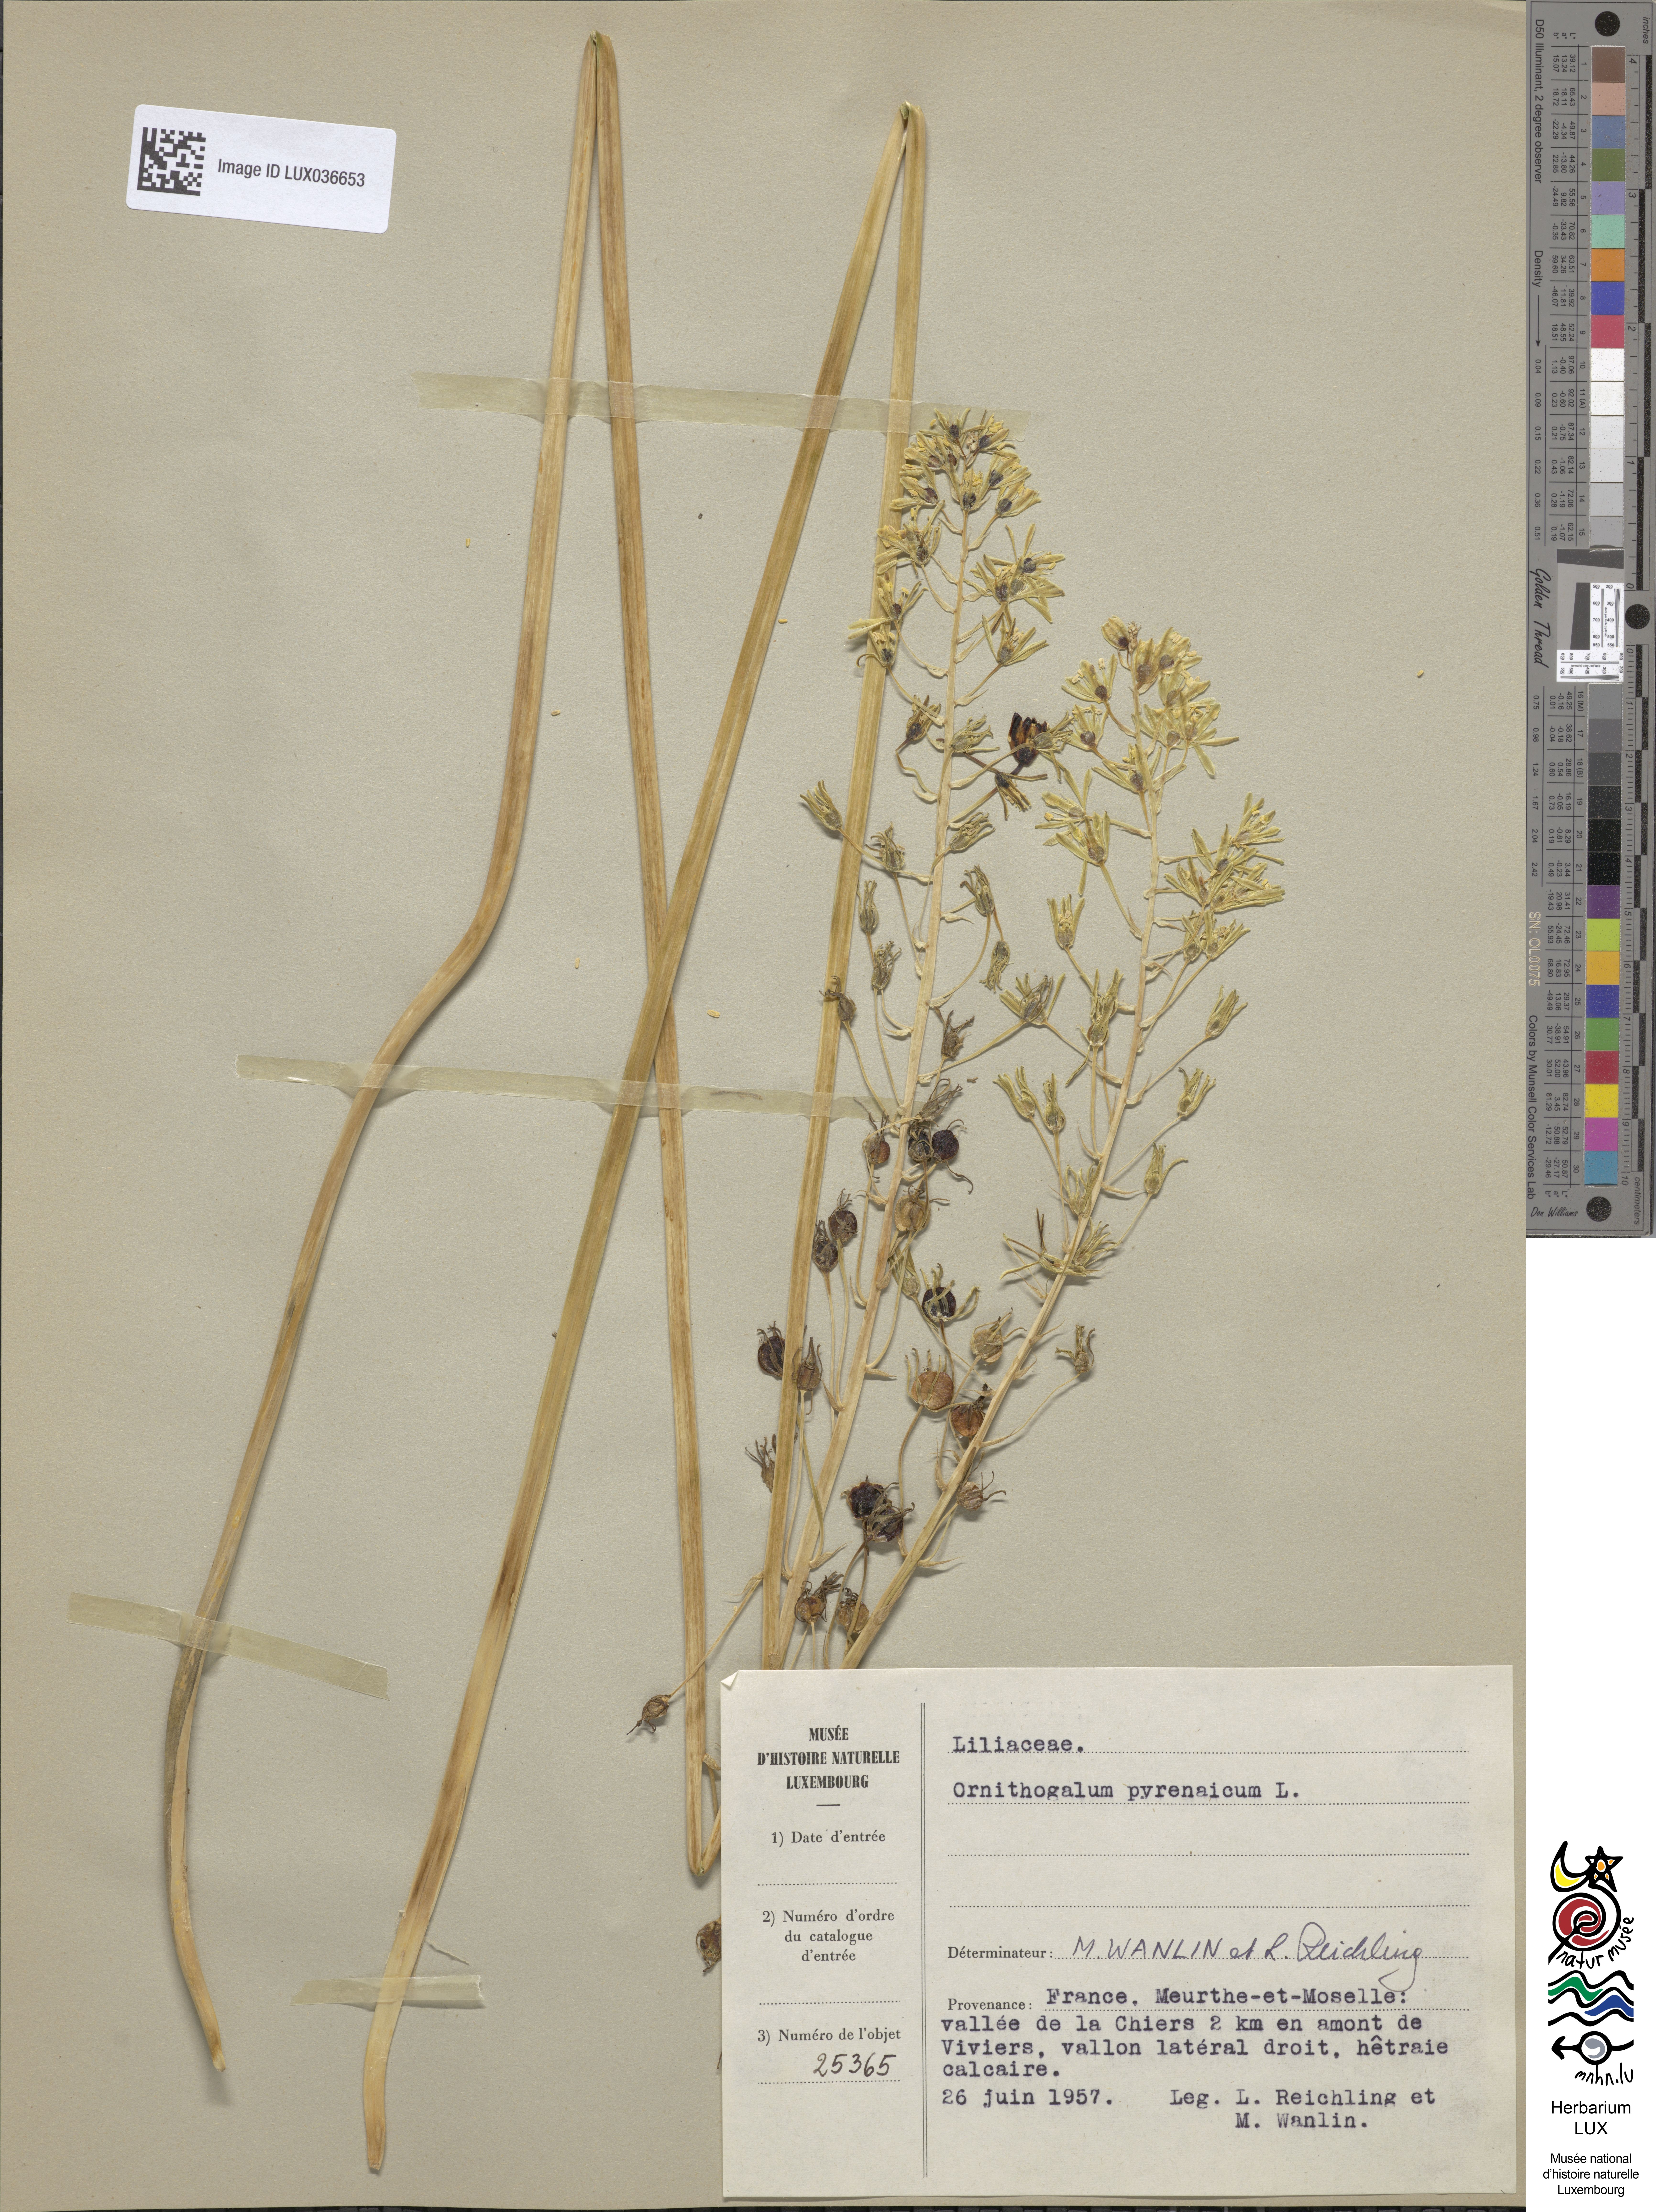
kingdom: Plantae
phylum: Tracheophyta
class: Liliopsida
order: Asparagales
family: Asparagaceae
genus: Ornithogalum
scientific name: Ornithogalum pyrenaicum
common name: Spiked star-of-bethlehem
